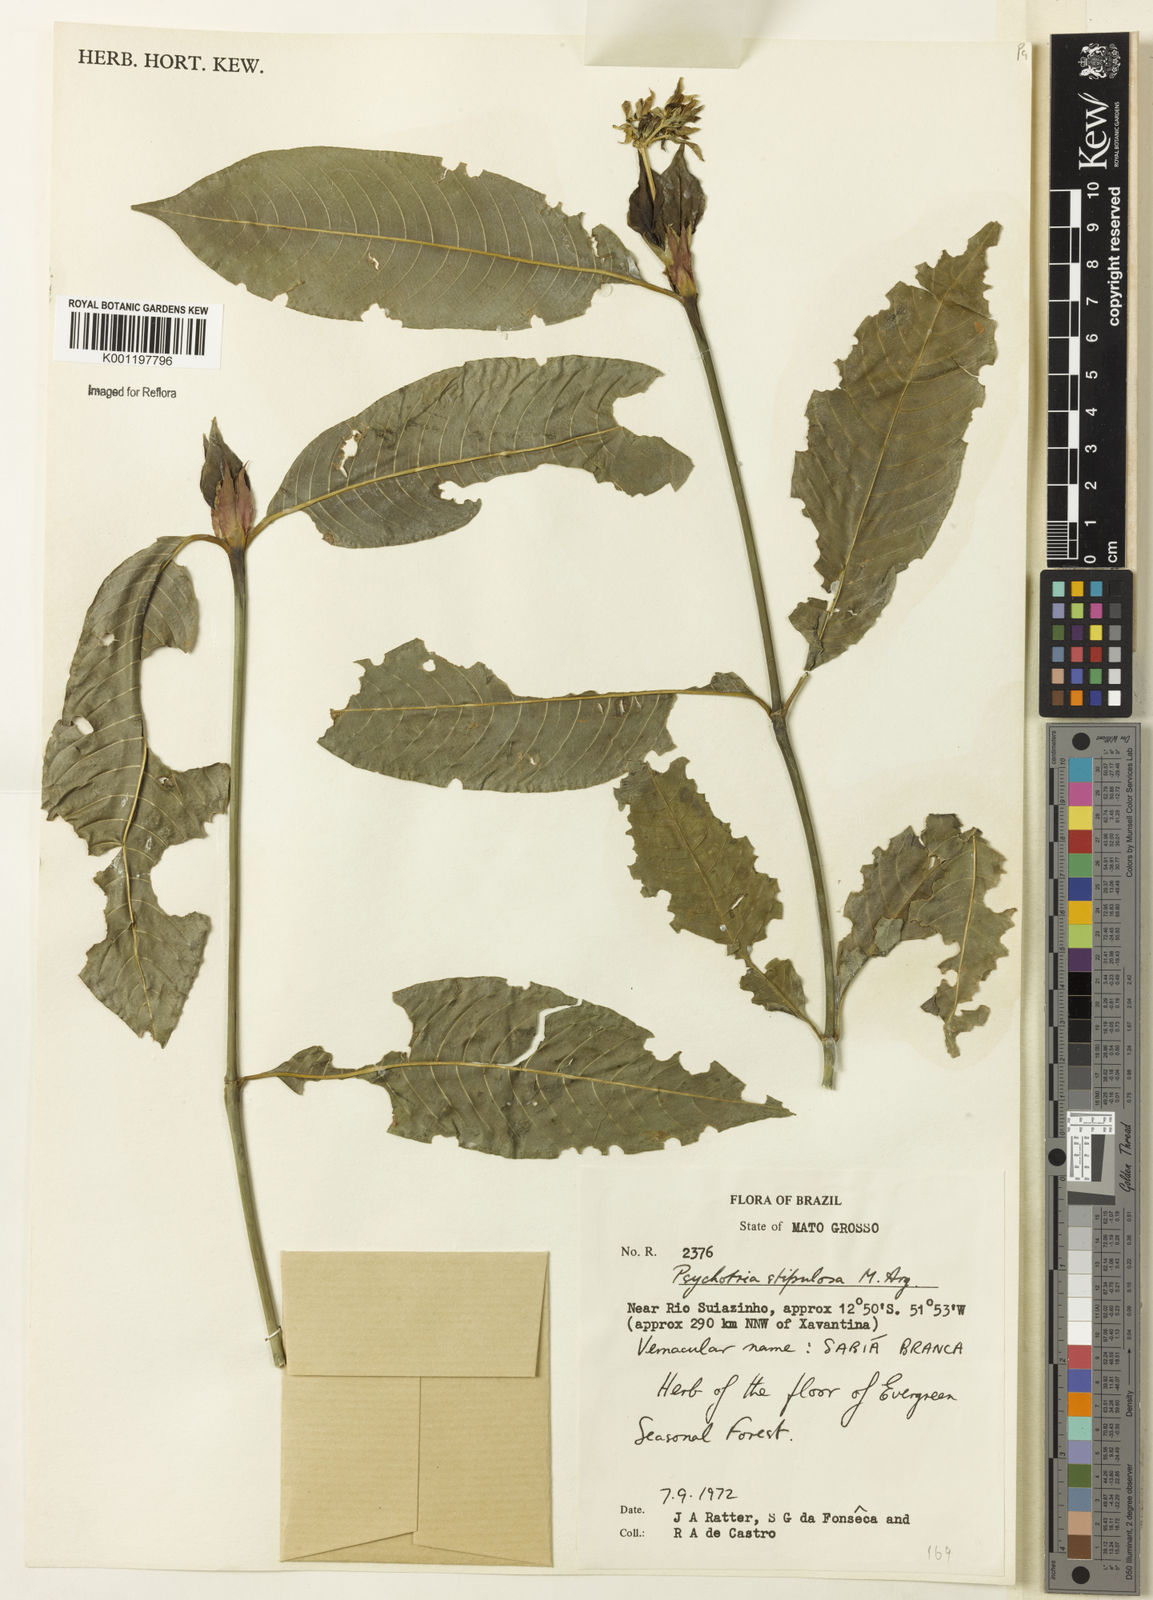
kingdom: Plantae
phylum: Tracheophyta
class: Magnoliopsida
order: Gentianales
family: Rubiaceae
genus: Psychotria
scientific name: Psychotria
